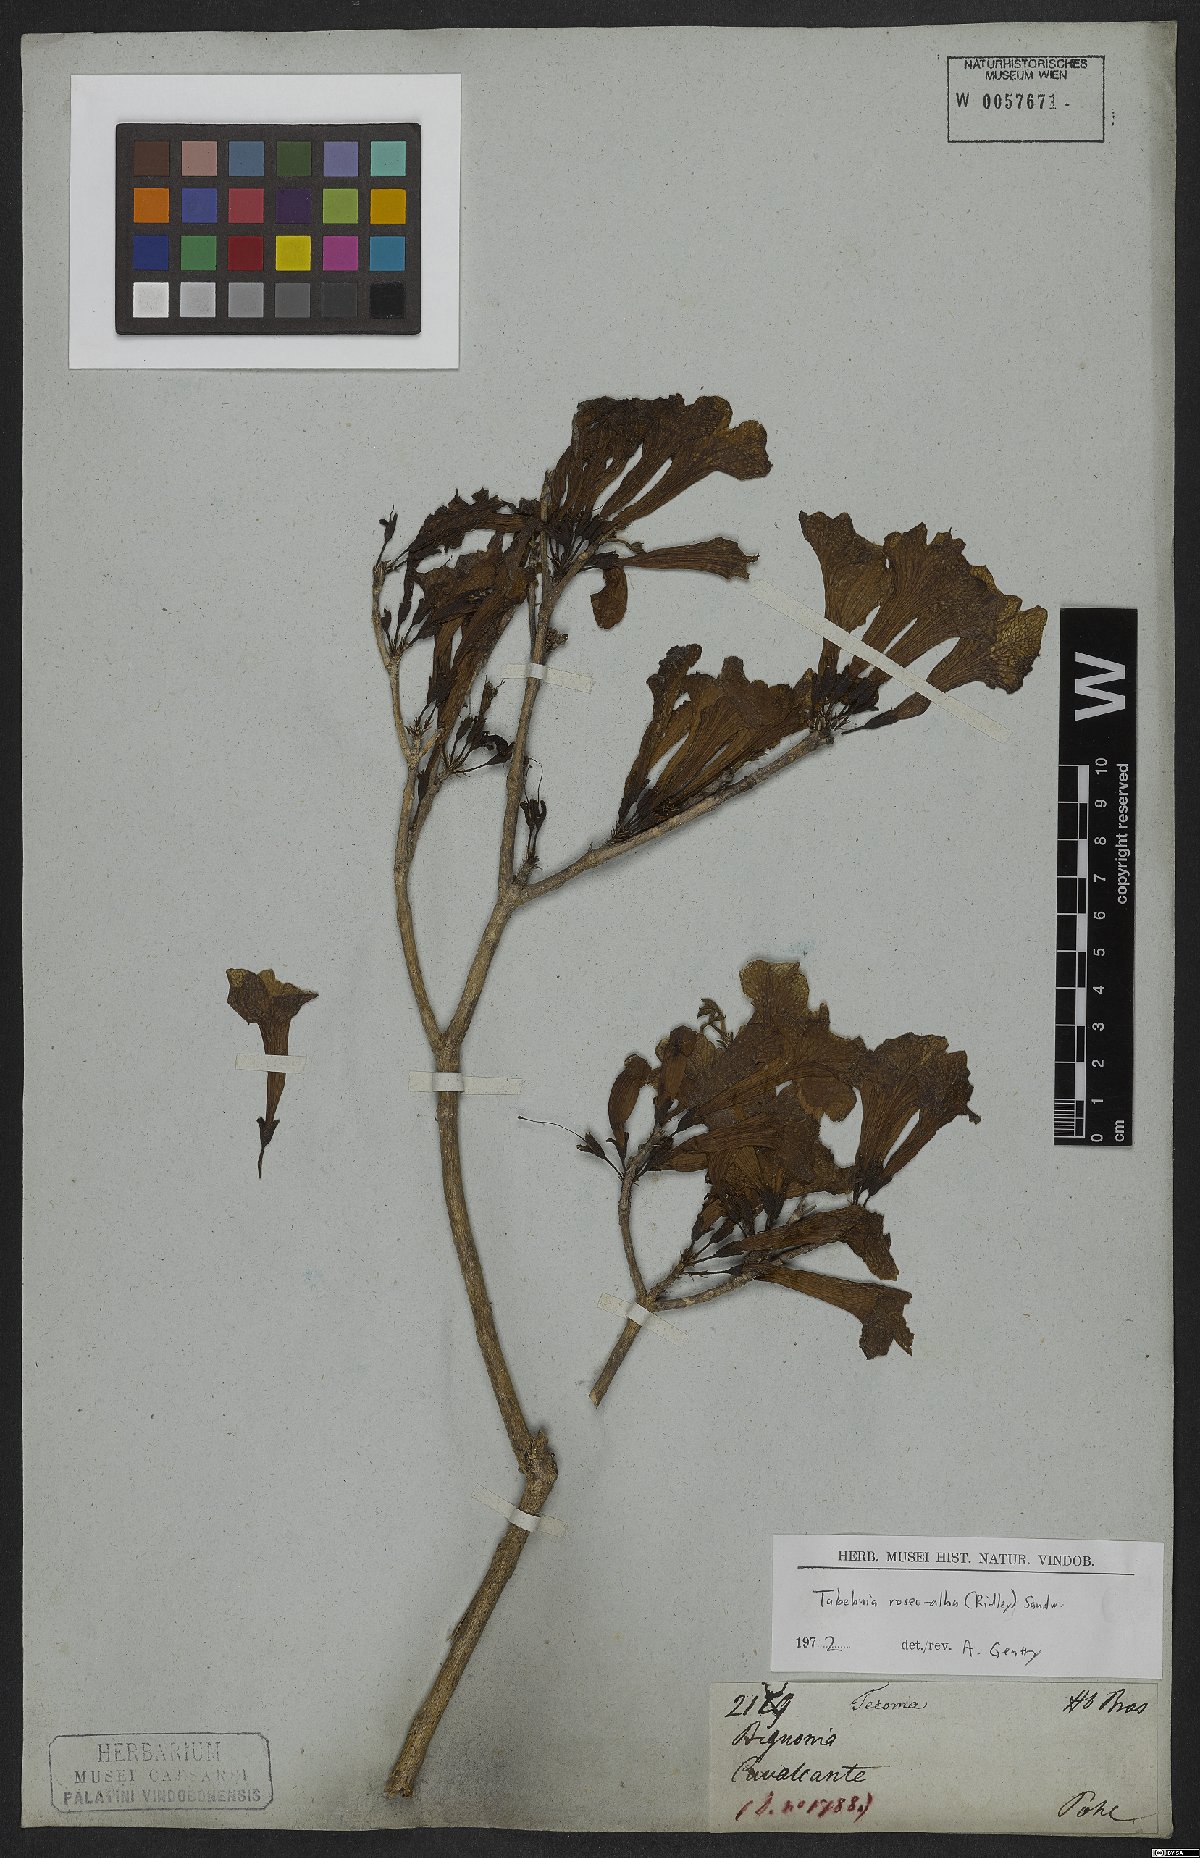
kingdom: Plantae
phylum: Tracheophyta
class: Magnoliopsida
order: Lamiales
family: Bignoniaceae
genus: Tabebuia
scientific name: Tabebuia roseoalba
